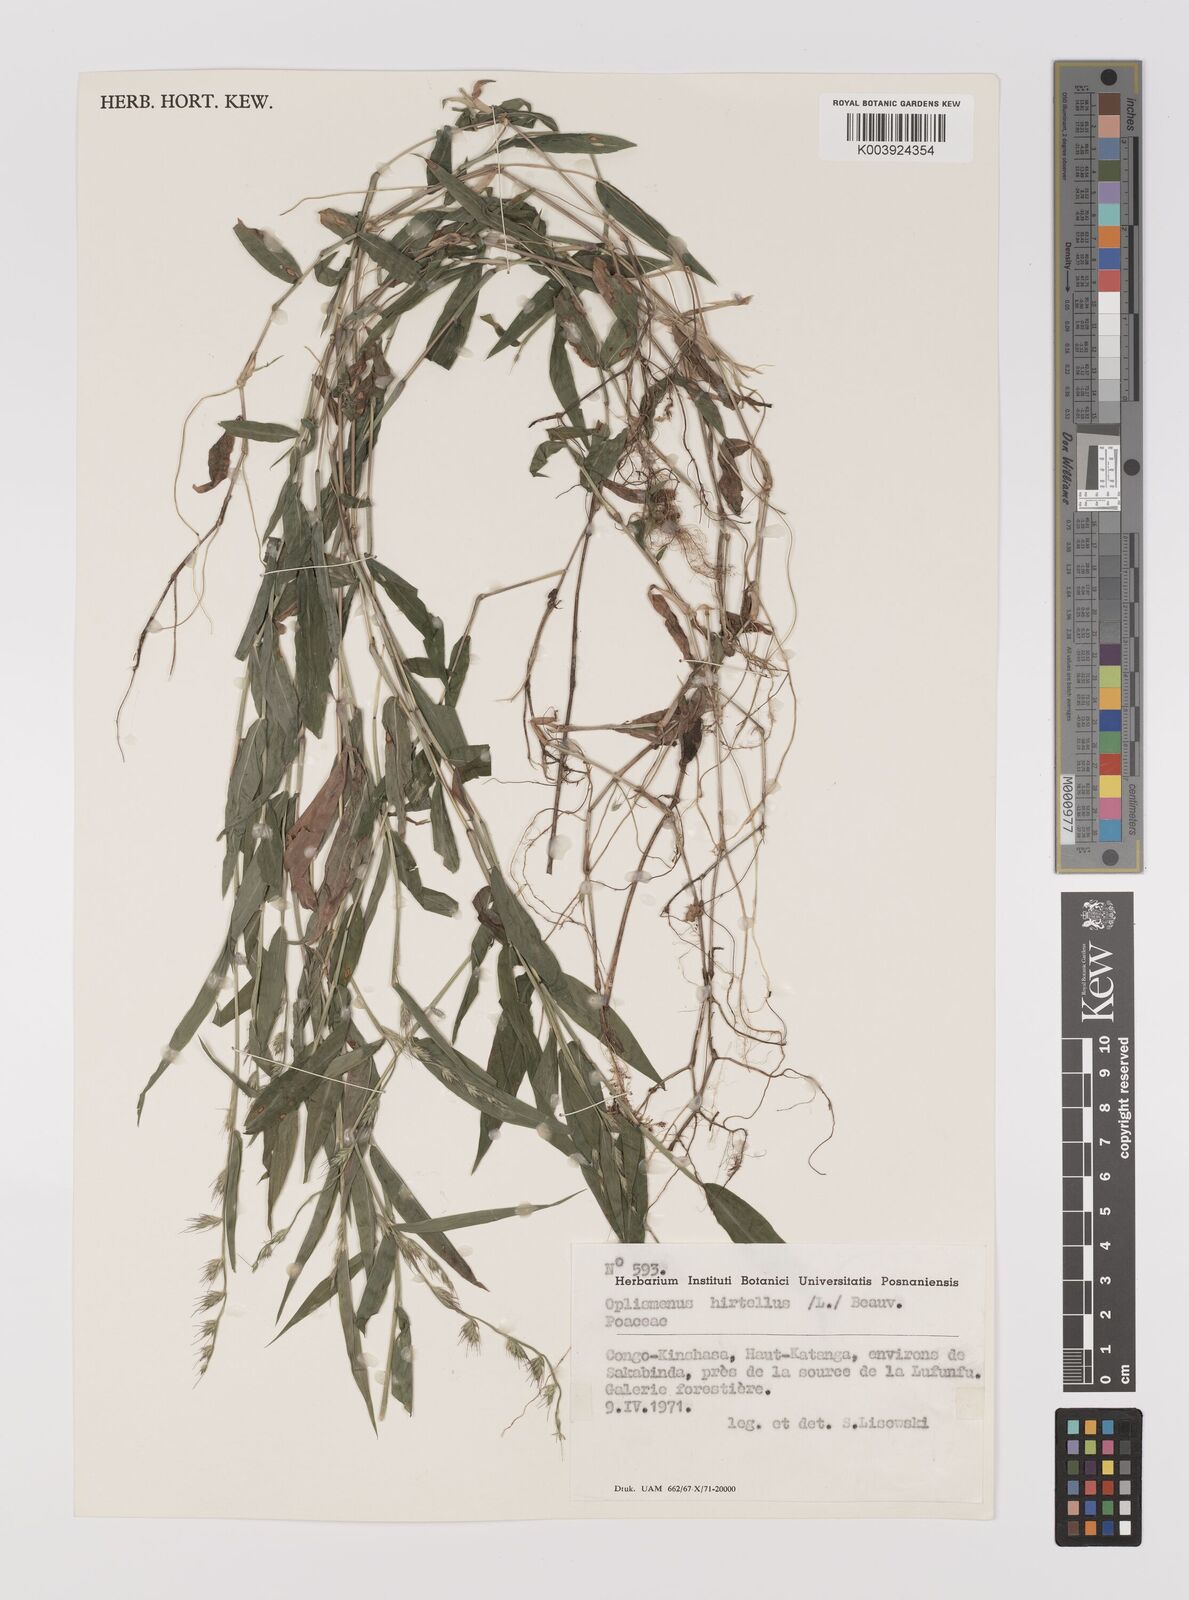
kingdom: Plantae
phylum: Tracheophyta
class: Liliopsida
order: Poales
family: Poaceae
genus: Oplismenus
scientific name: Oplismenus hirtellus
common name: Basketgrass
